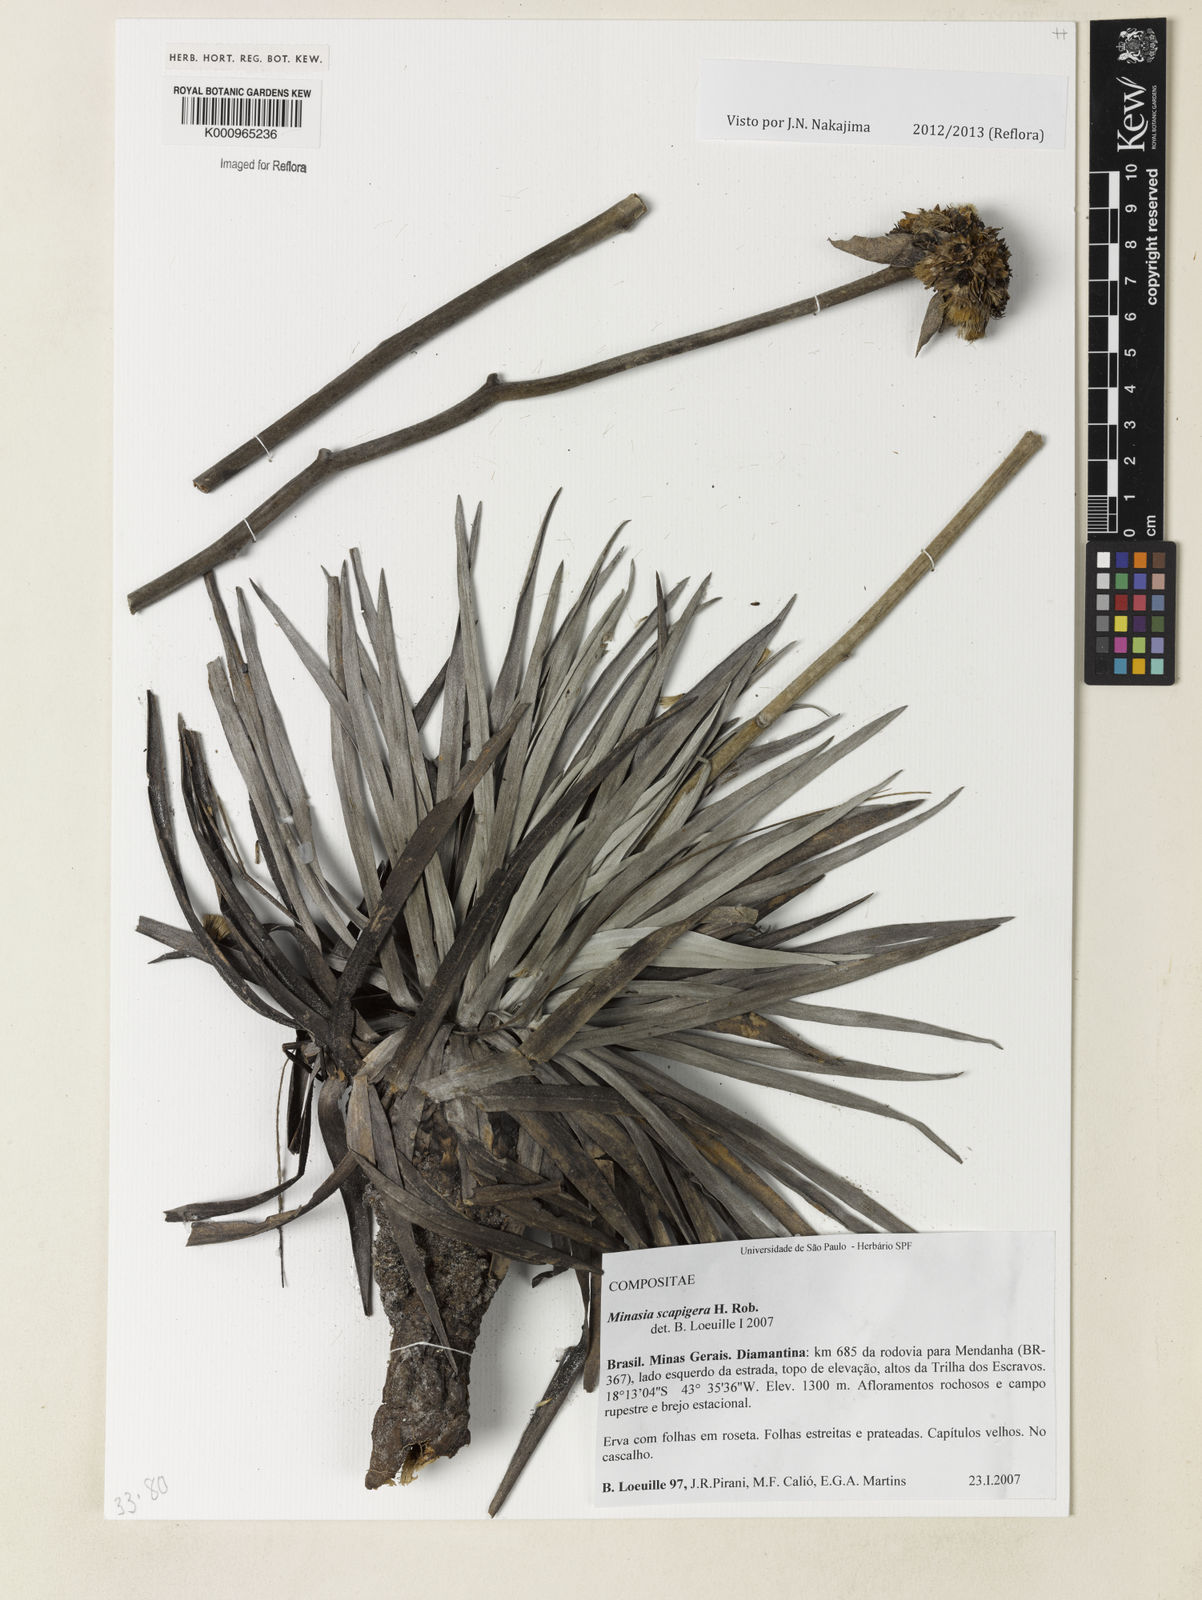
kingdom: Plantae
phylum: Tracheophyta
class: Magnoliopsida
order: Asterales
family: Asteraceae
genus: Minasia
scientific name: Minasia scapigera
